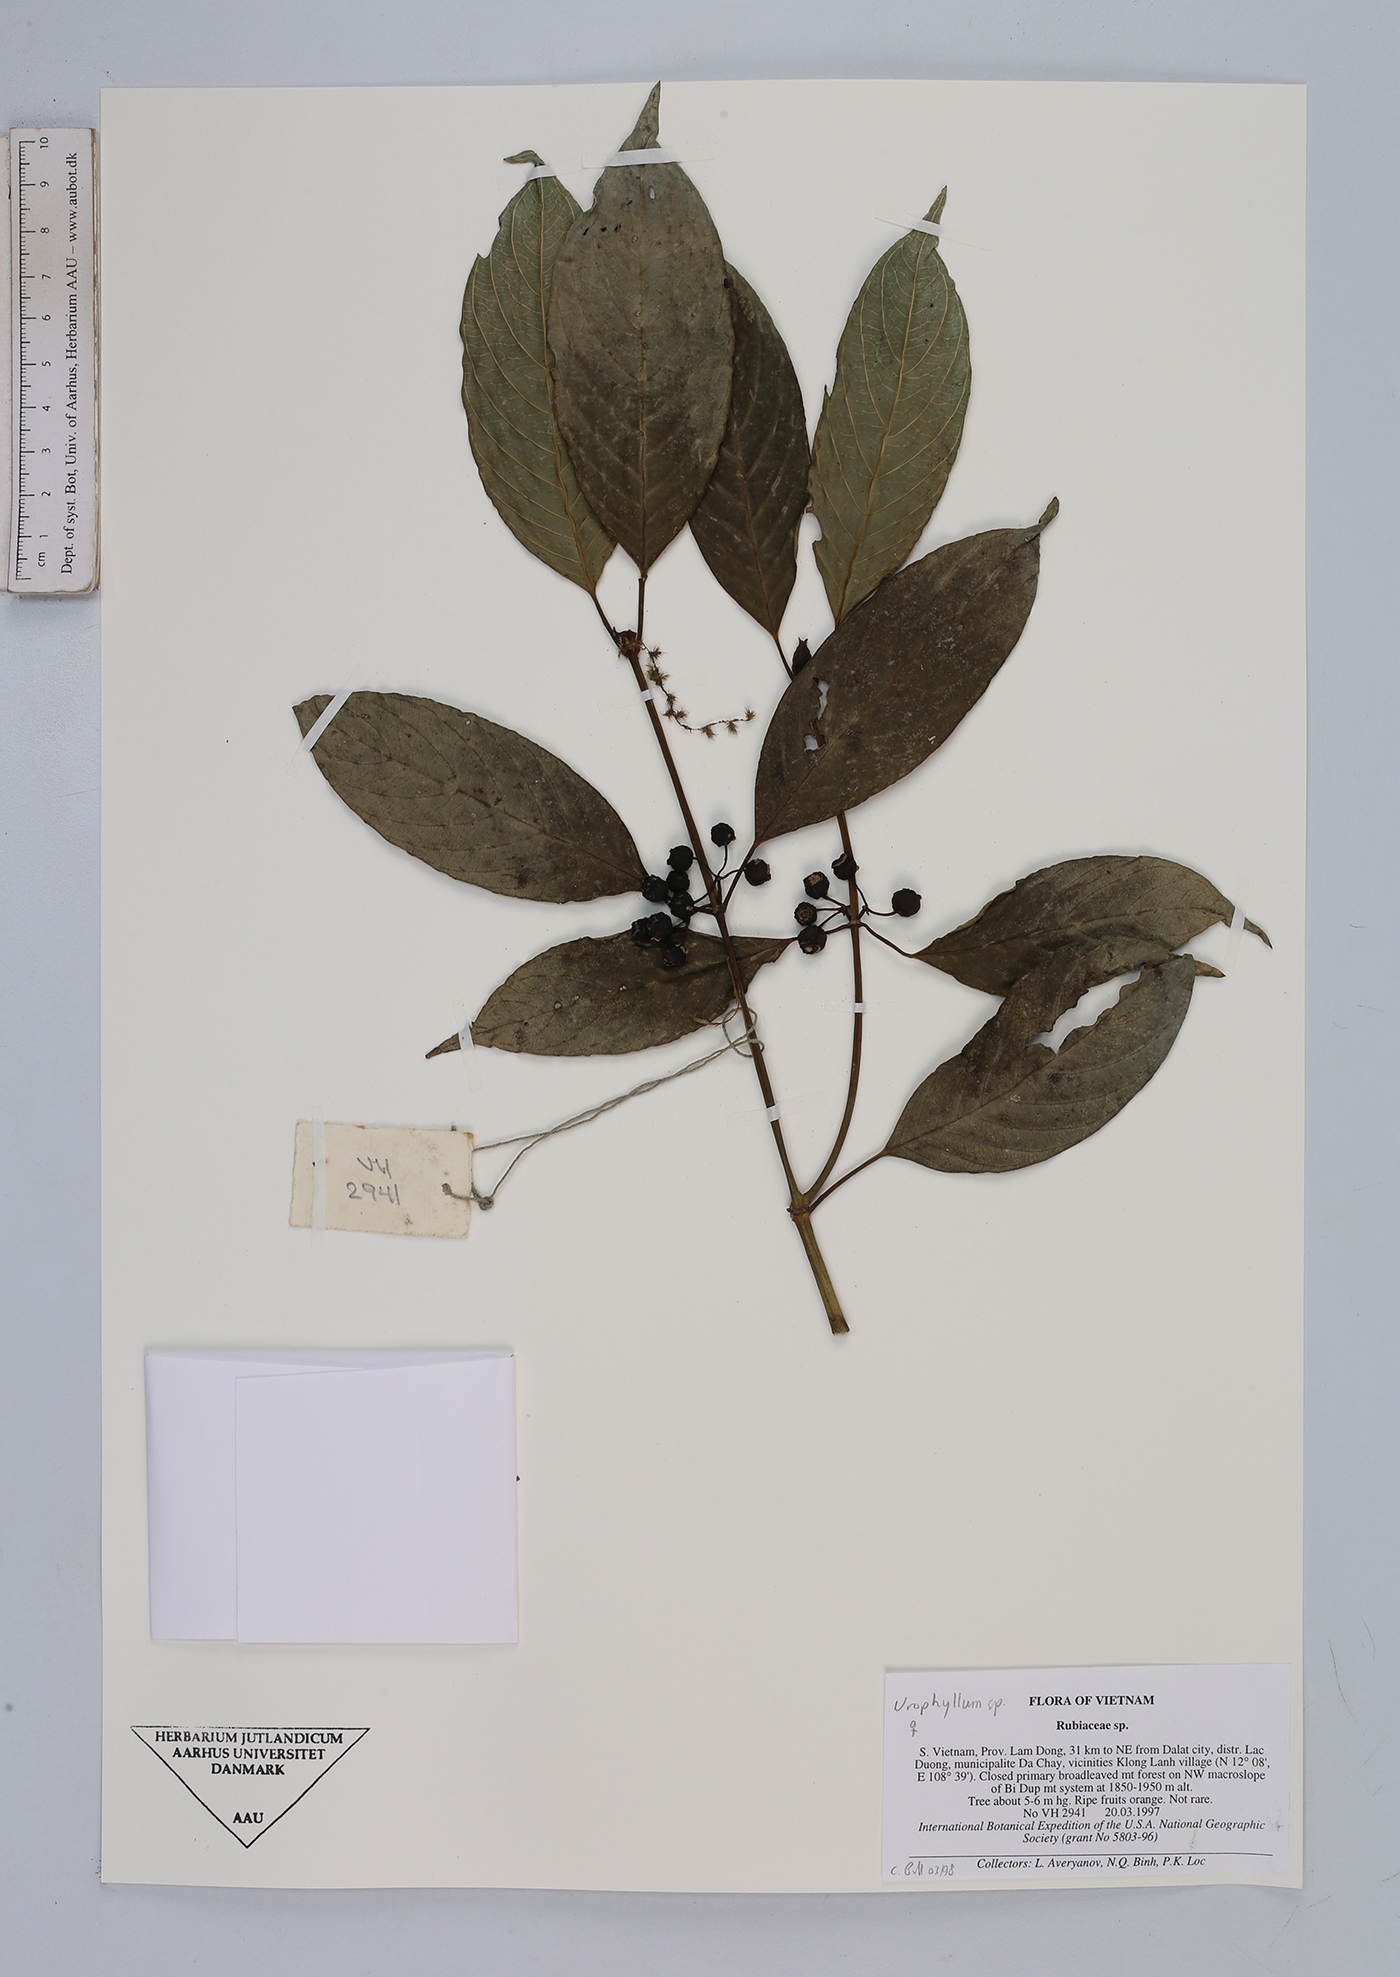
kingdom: Plantae
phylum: Tracheophyta
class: Magnoliopsida
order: Gentianales
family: Rubiaceae
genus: Urophyllum
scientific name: Urophyllum
